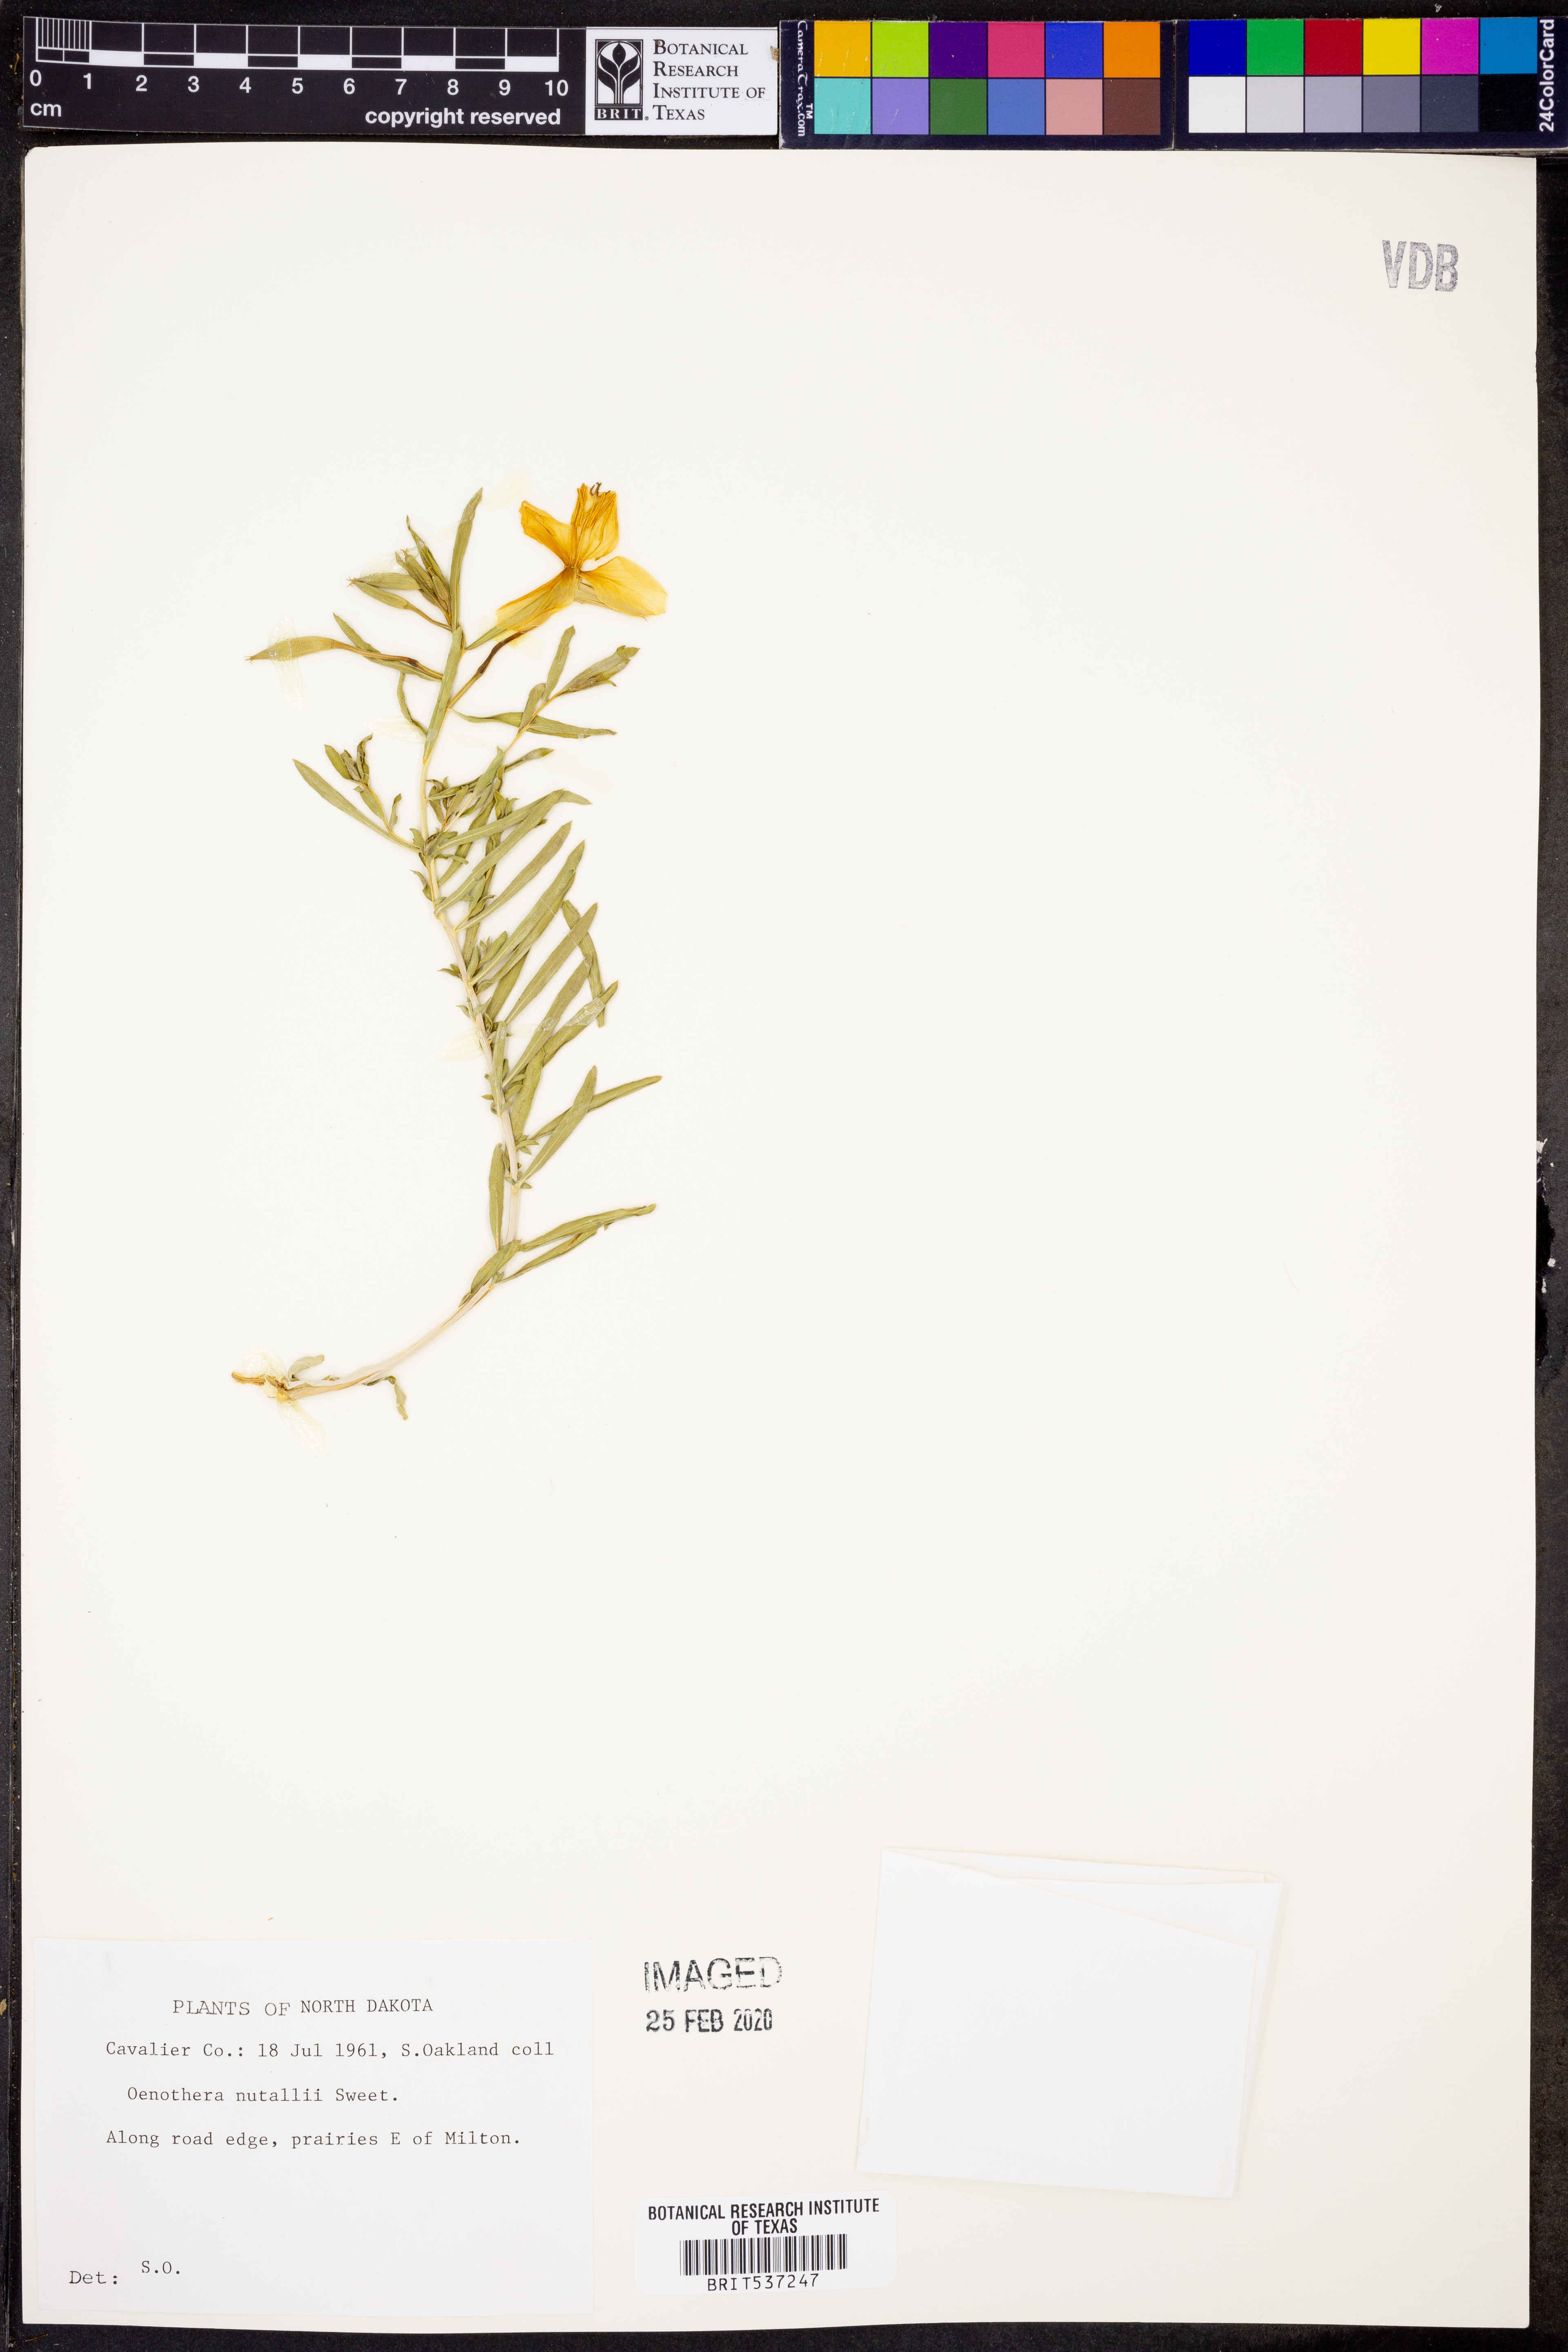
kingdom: Plantae
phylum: Tracheophyta
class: Magnoliopsida
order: Myrtales
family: Onagraceae
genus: Oenothera
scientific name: Oenothera albicaulis
